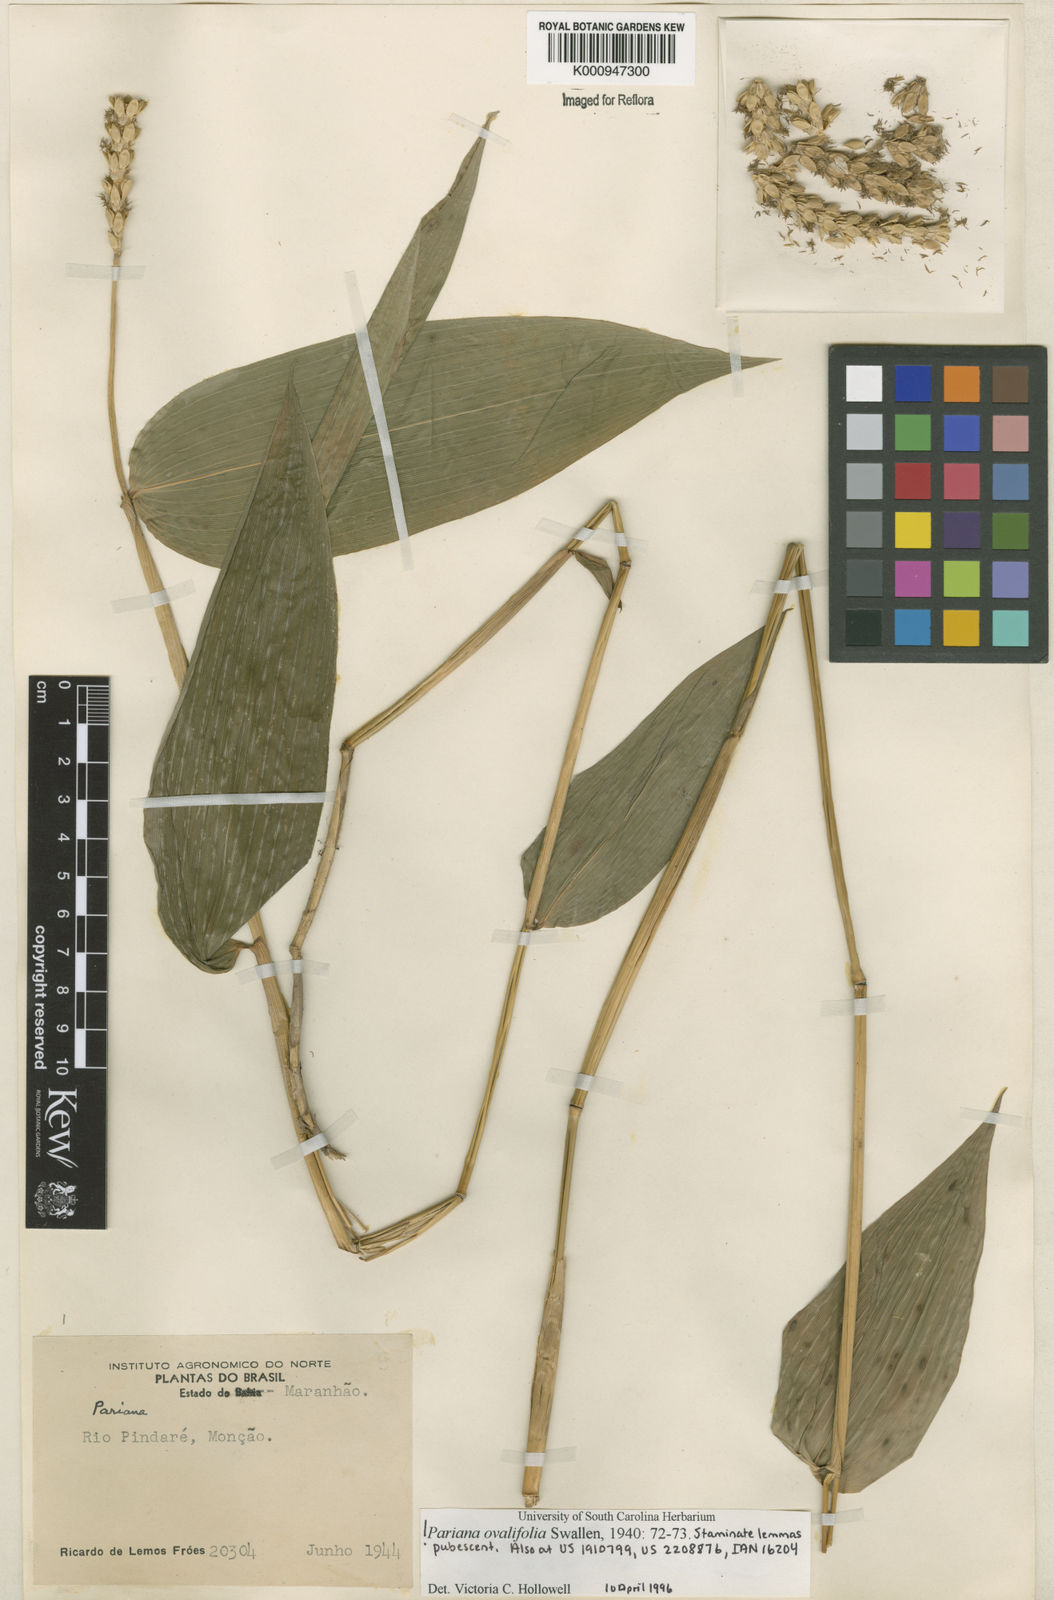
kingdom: Plantae
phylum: Tracheophyta
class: Liliopsida
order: Poales
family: Poaceae
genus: Pariana
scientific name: Pariana ovalifolia
